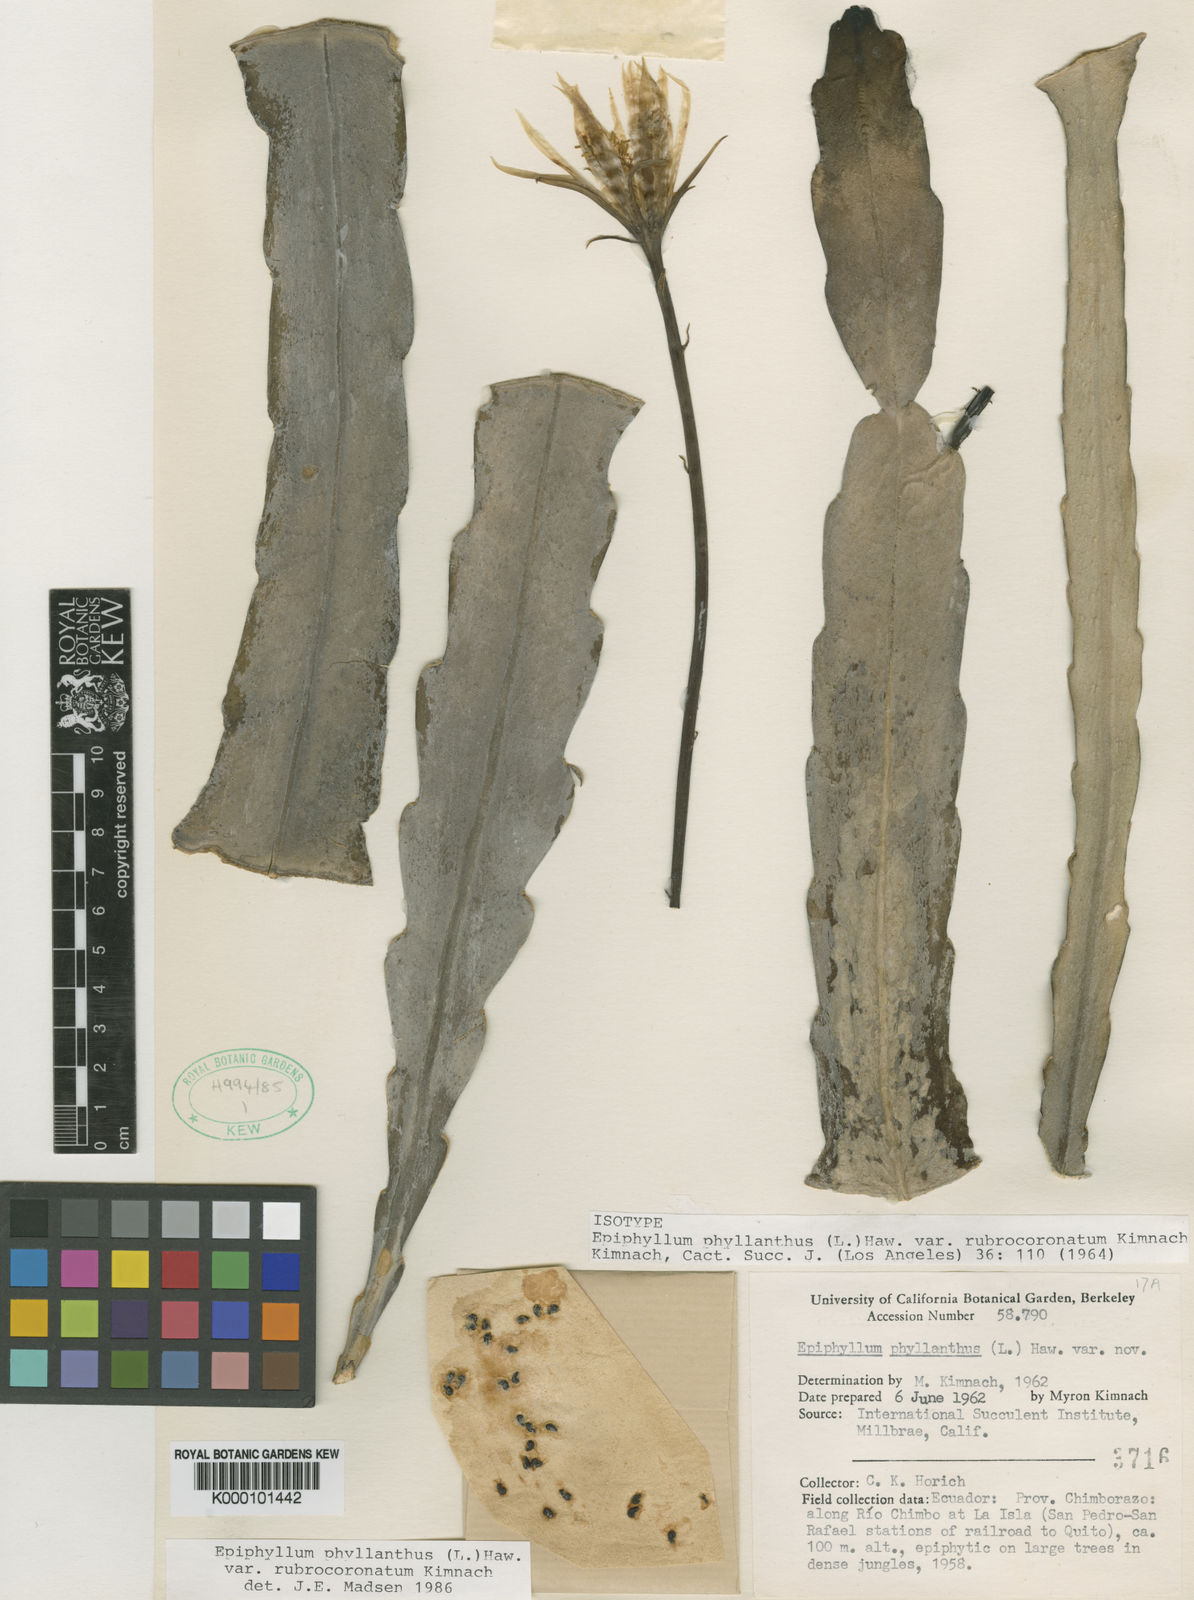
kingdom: Plantae
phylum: Tracheophyta
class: Magnoliopsida
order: Caryophyllales
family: Cactaceae
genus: Epiphyllum
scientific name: Epiphyllum phyllanthus
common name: Climbing cactus
